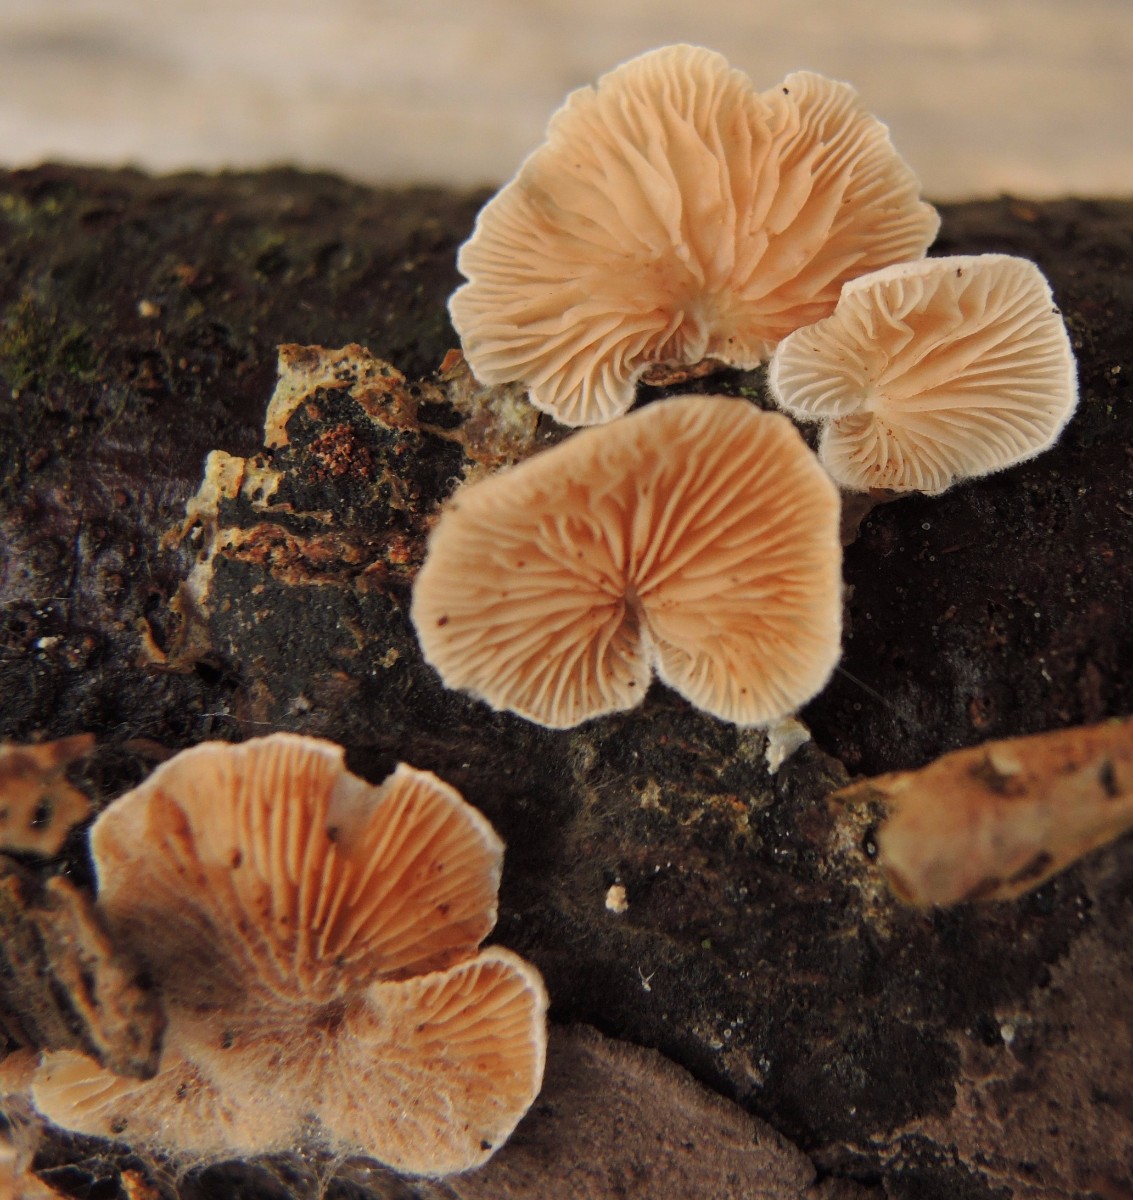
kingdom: Fungi
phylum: Basidiomycota
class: Agaricomycetes
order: Agaricales
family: Crepidotaceae
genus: Crepidotus
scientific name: Crepidotus variabilis
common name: forskelligformet muslingesvamp
